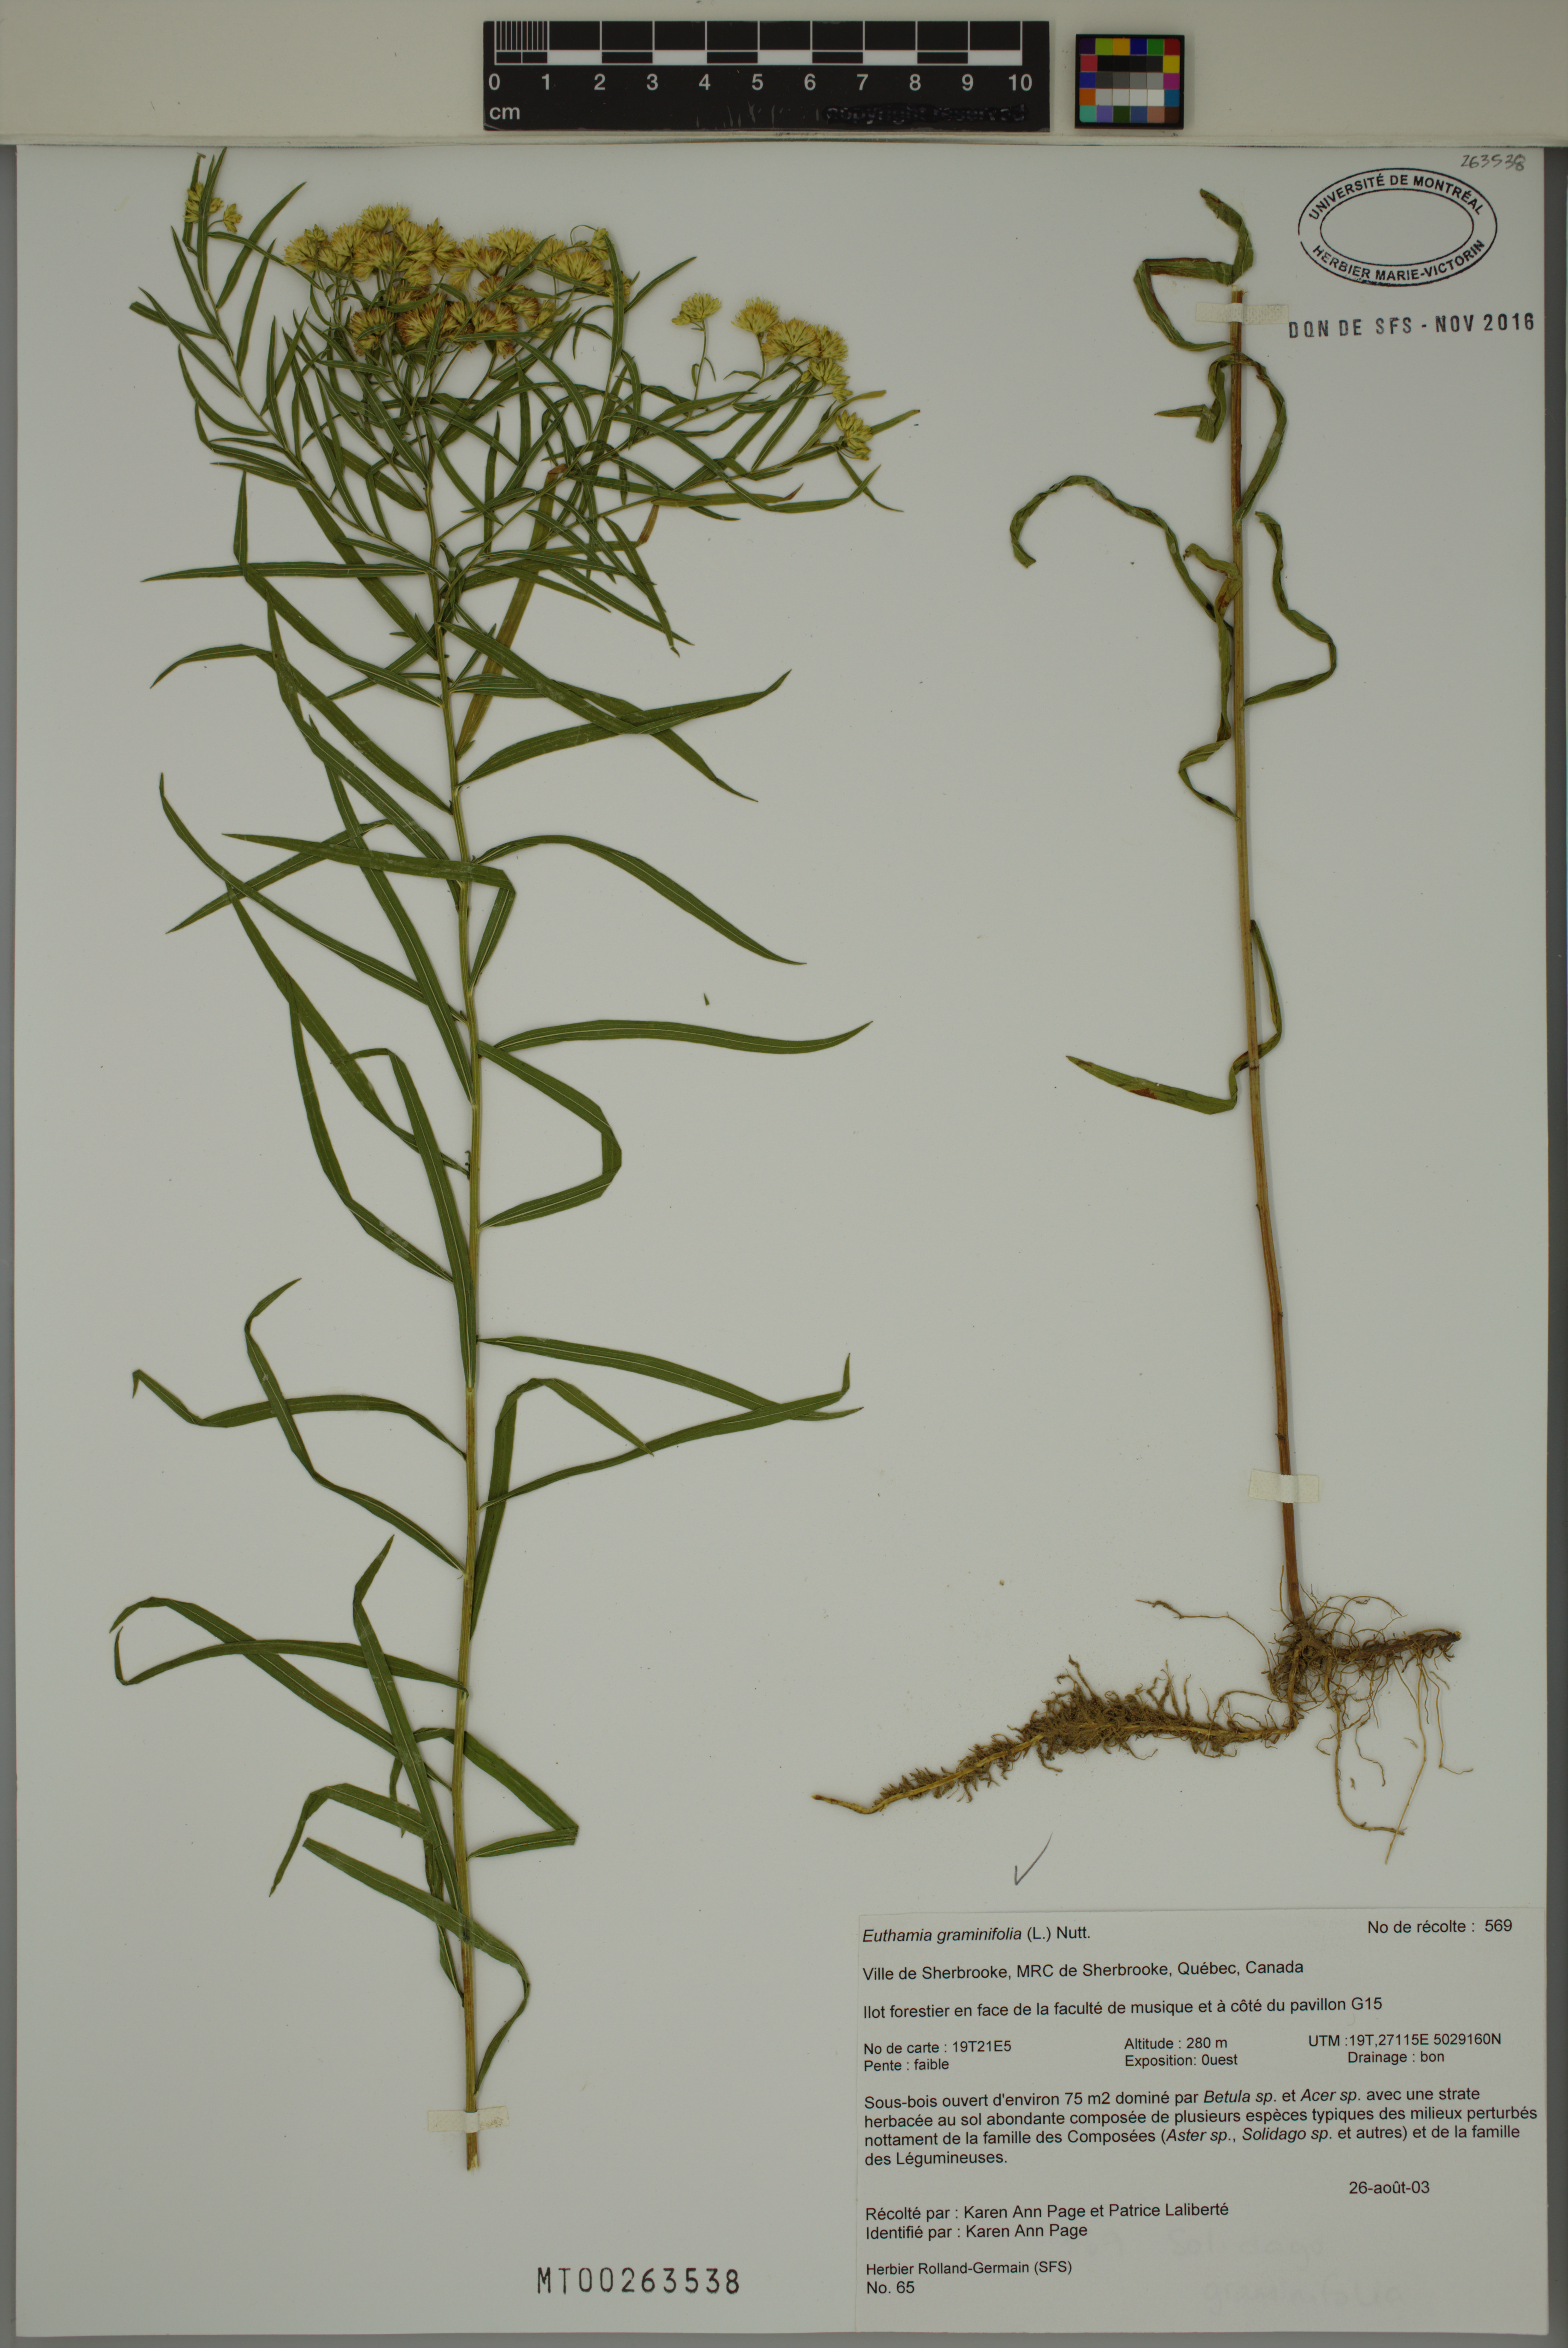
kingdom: Plantae
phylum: Tracheophyta
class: Magnoliopsida
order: Asterales
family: Asteraceae
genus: Euthamia
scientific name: Euthamia graminifolia
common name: Common goldentop
